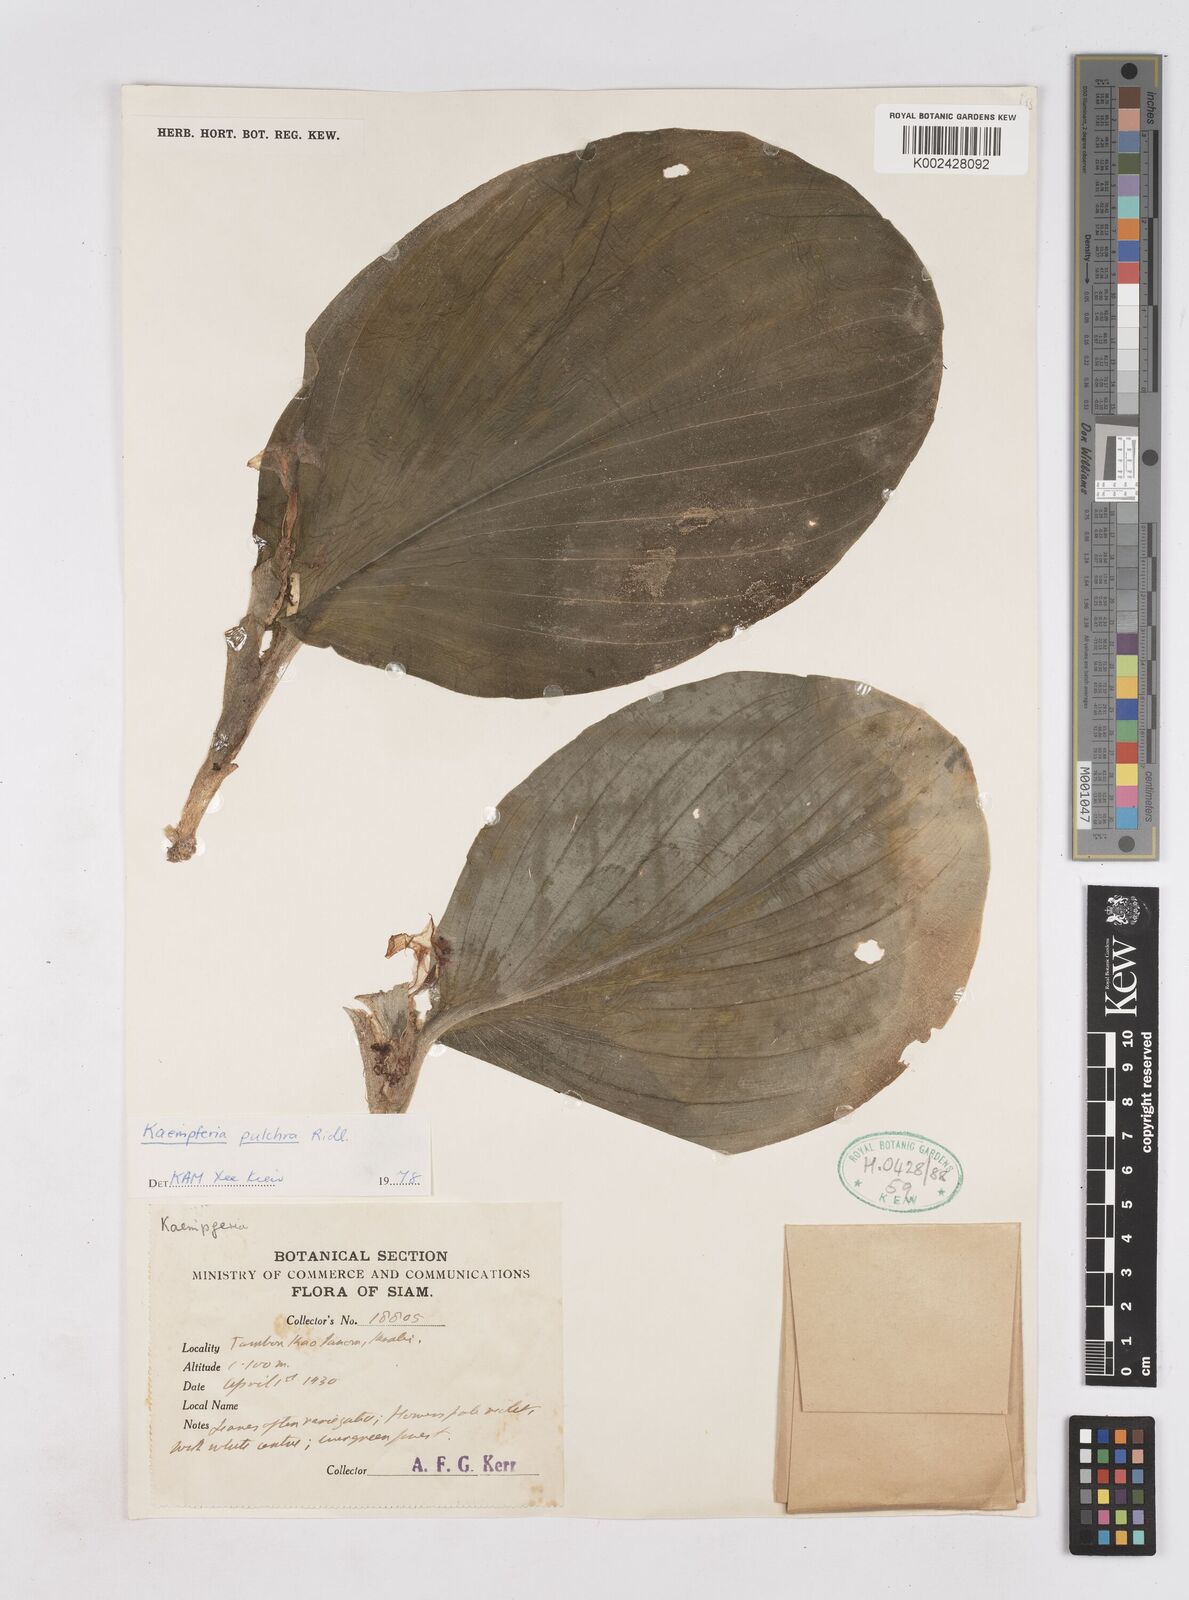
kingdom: Plantae
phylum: Tracheophyta
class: Liliopsida
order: Zingiberales
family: Zingiberaceae
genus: Kaempferia
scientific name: Kaempferia elegans
